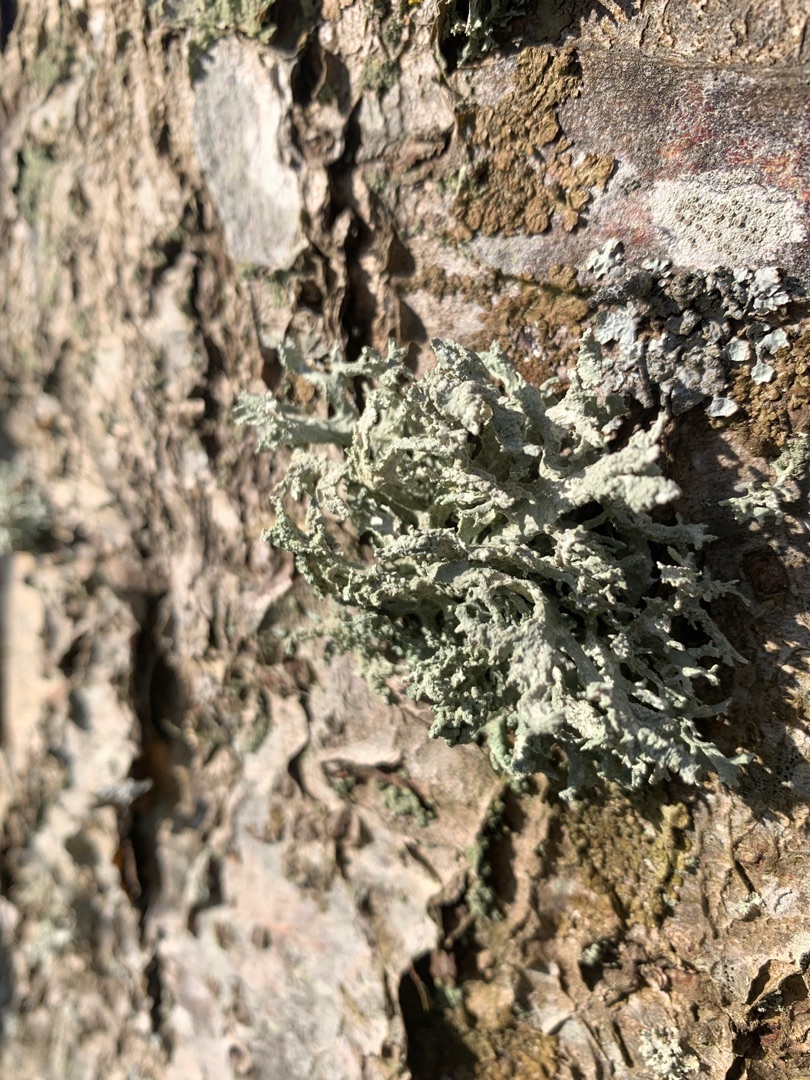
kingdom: Fungi
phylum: Ascomycota
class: Lecanoromycetes
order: Lecanorales
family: Parmeliaceae
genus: Evernia
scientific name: Evernia prunastri
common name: Almindelig slåenlav
